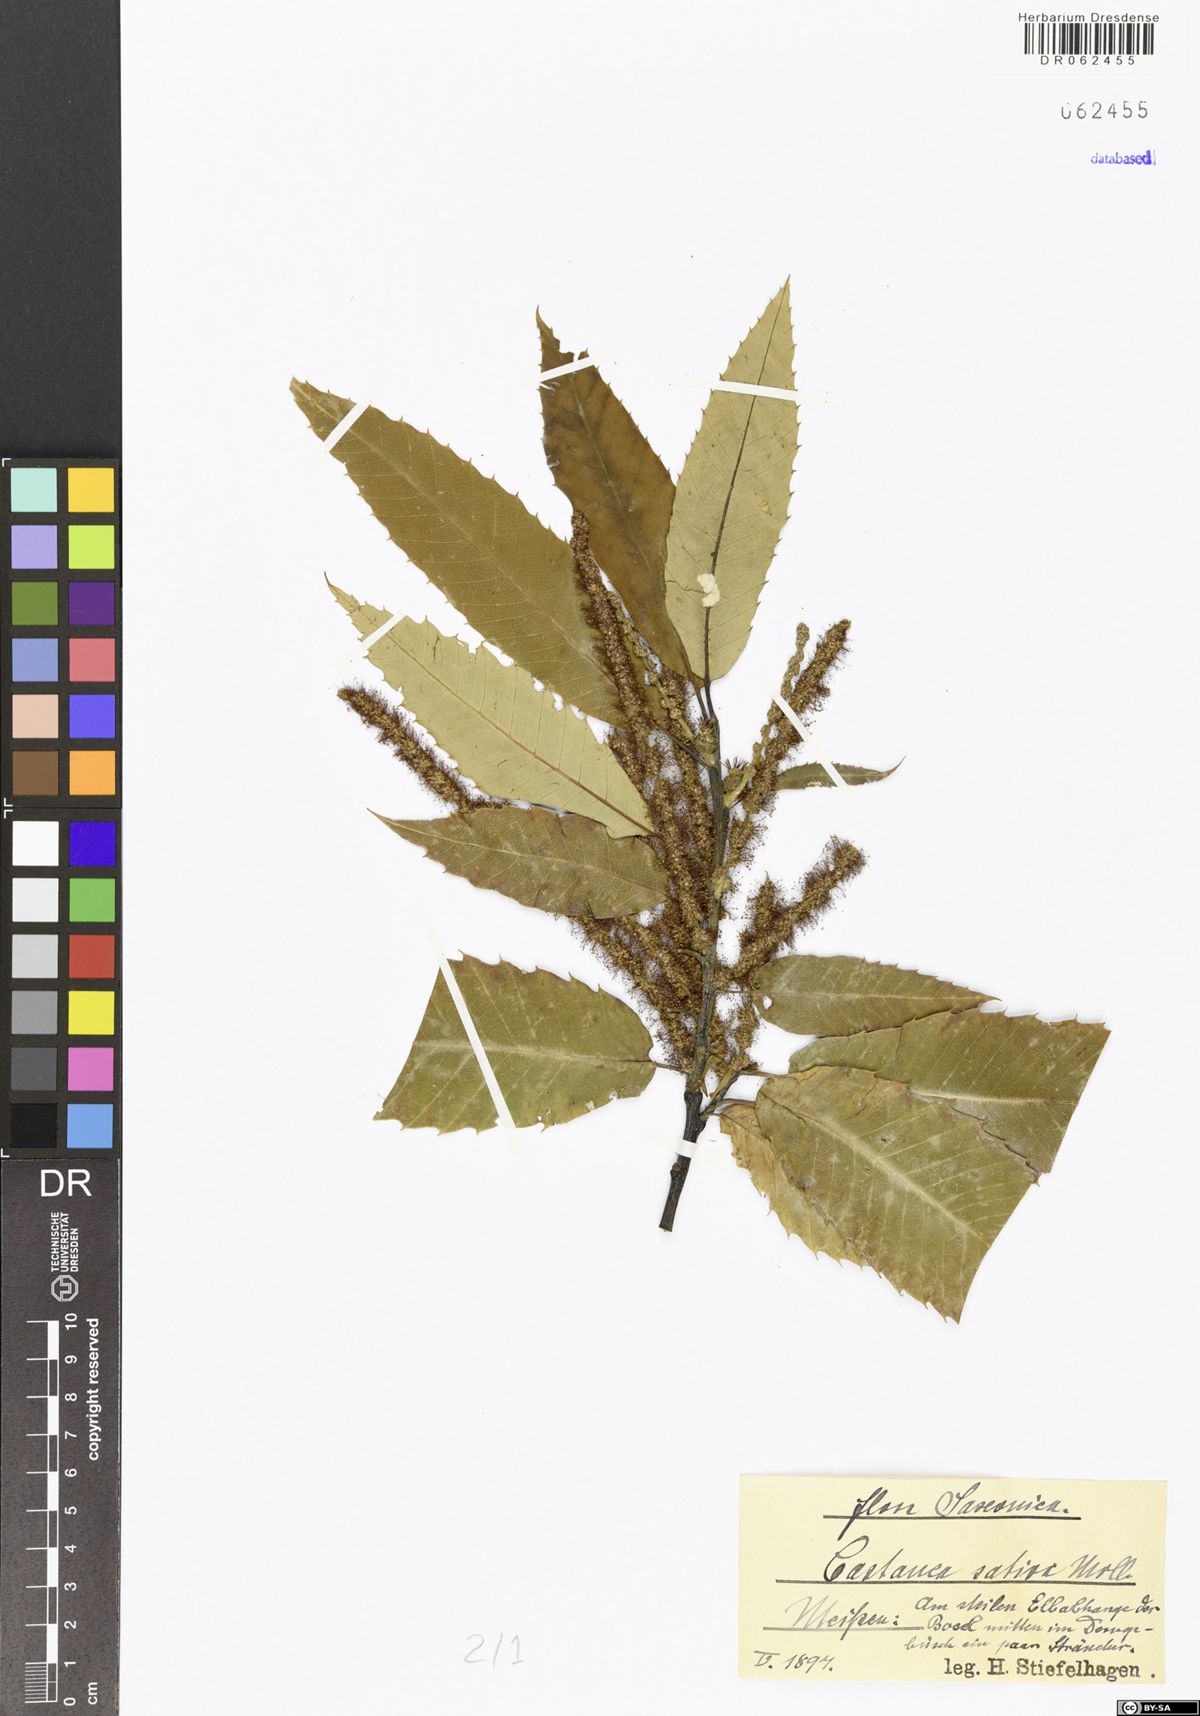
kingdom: Plantae
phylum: Tracheophyta
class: Magnoliopsida
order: Fagales
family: Fagaceae
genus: Castanea
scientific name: Castanea sativa
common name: Sweet chestnut
